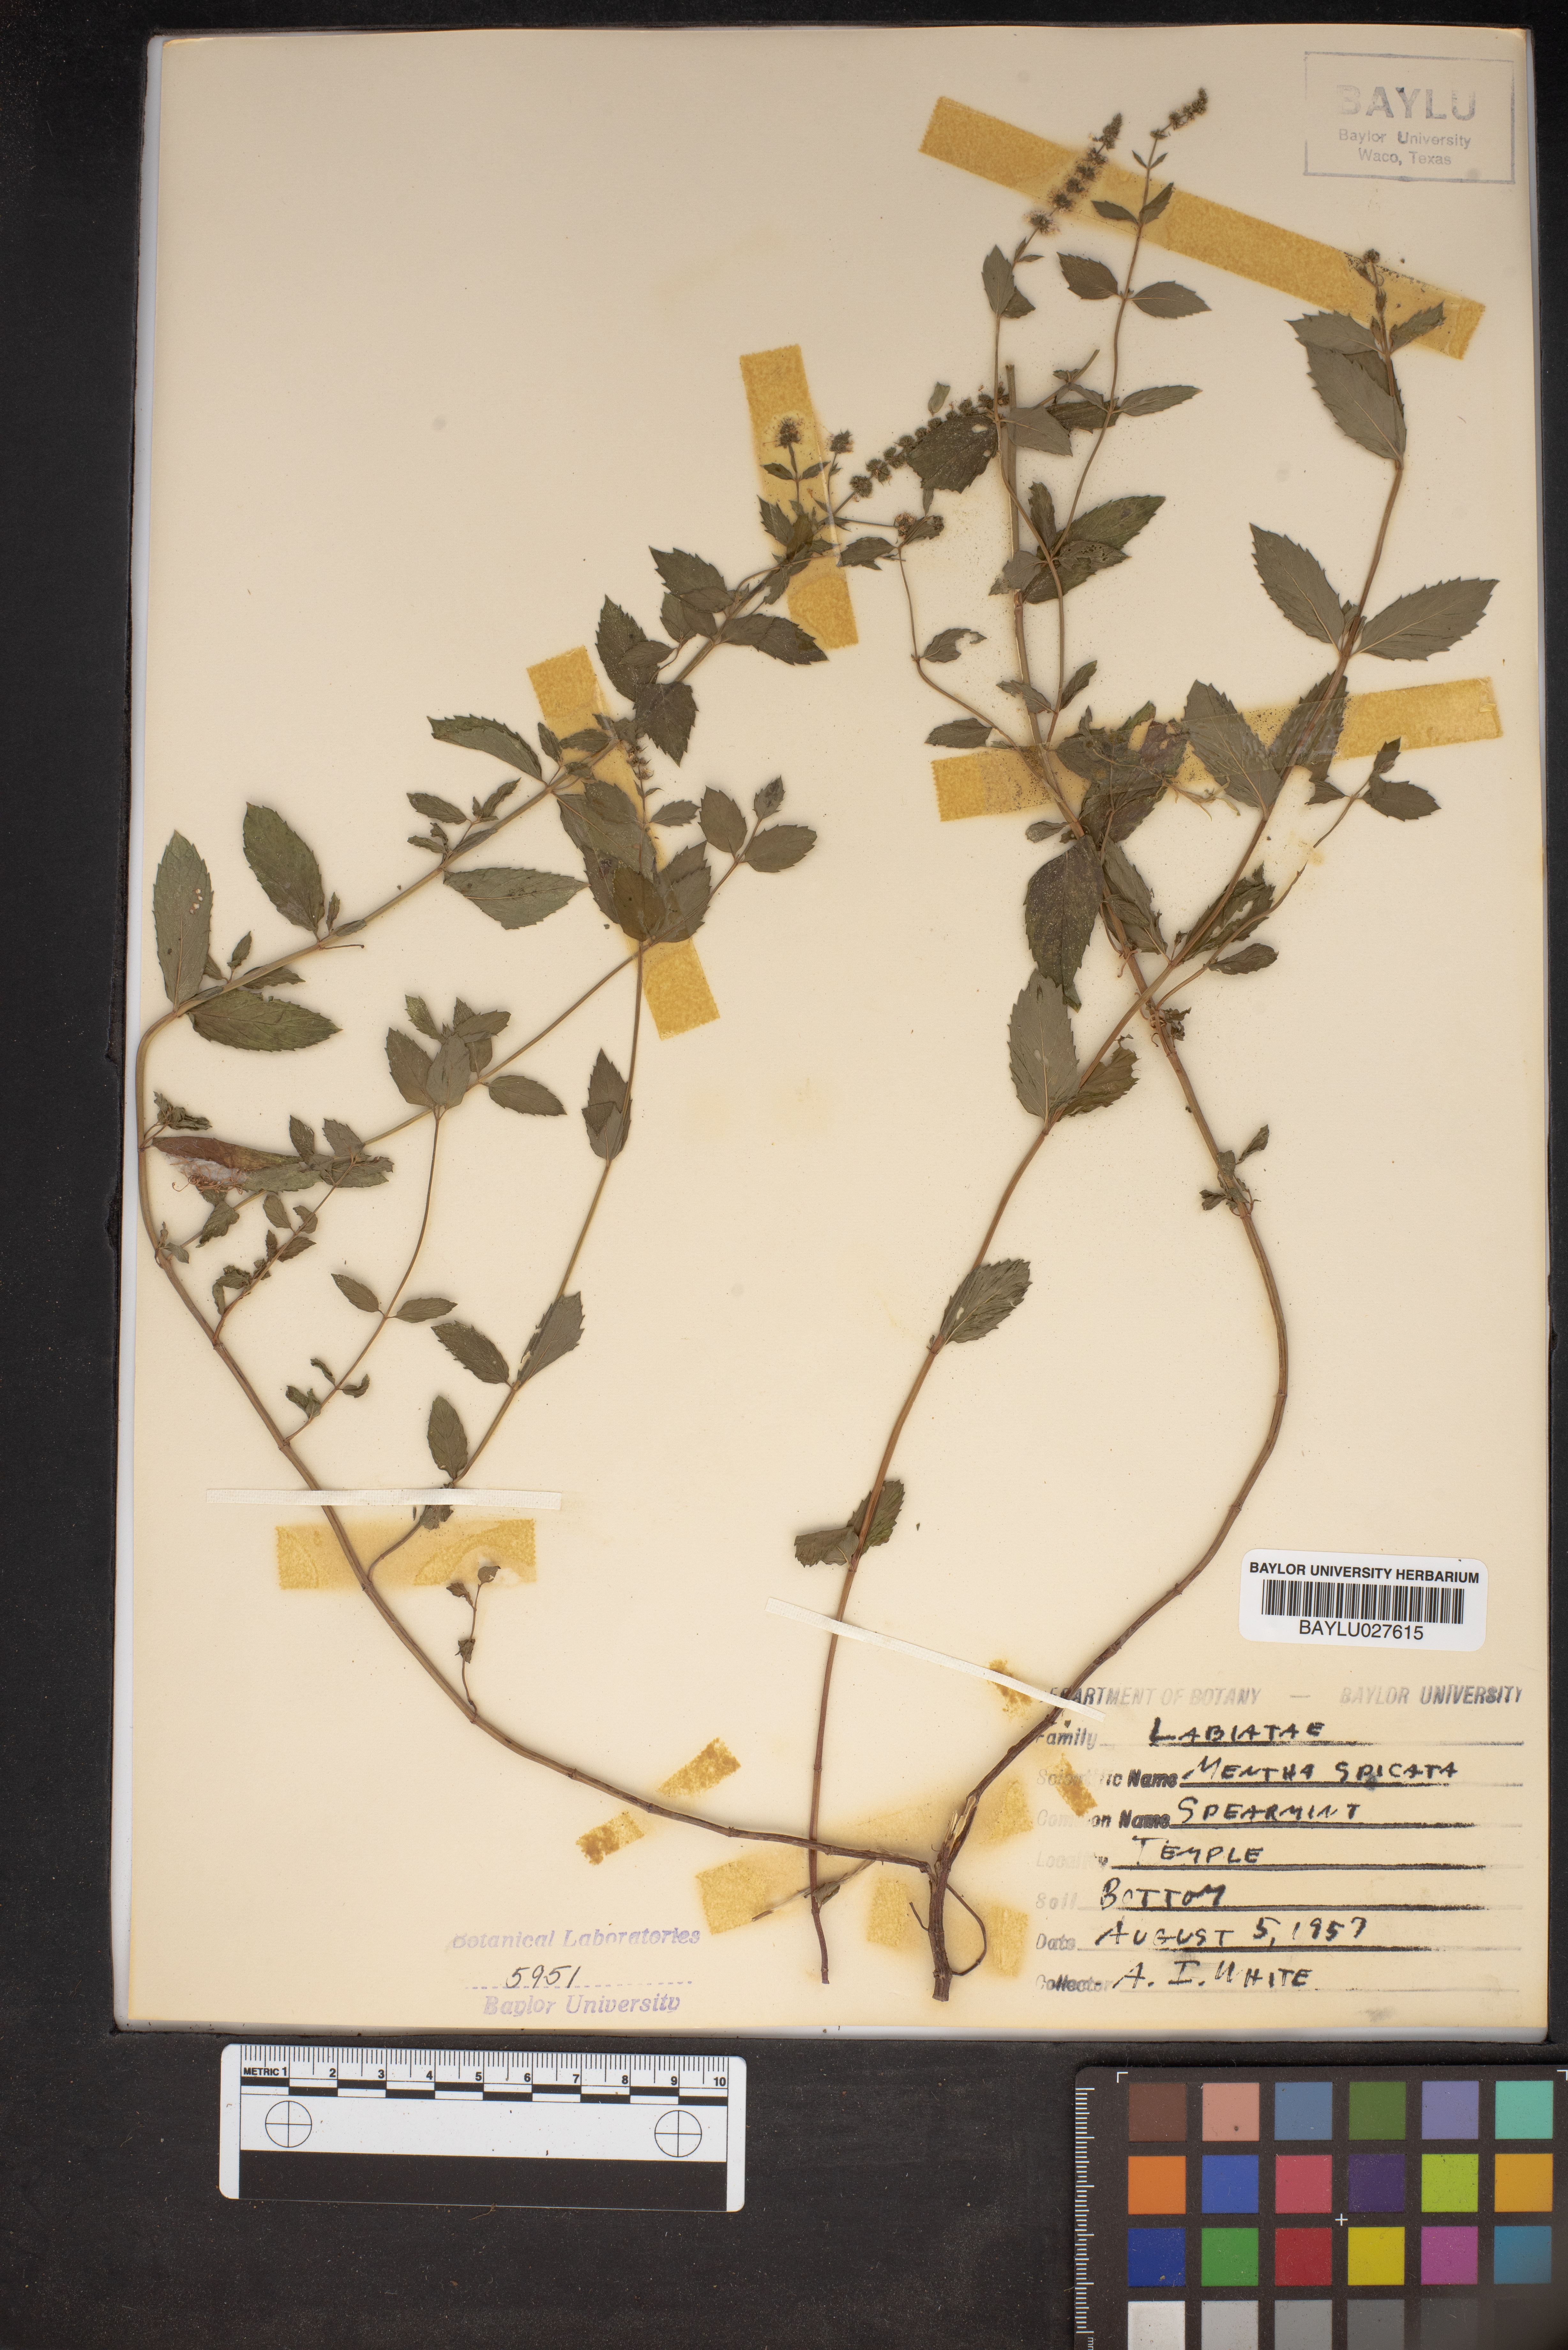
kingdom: Plantae
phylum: Tracheophyta
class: Magnoliopsida
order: Lamiales
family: Lamiaceae
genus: Mentha
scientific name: Mentha spicata
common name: Spearmint
